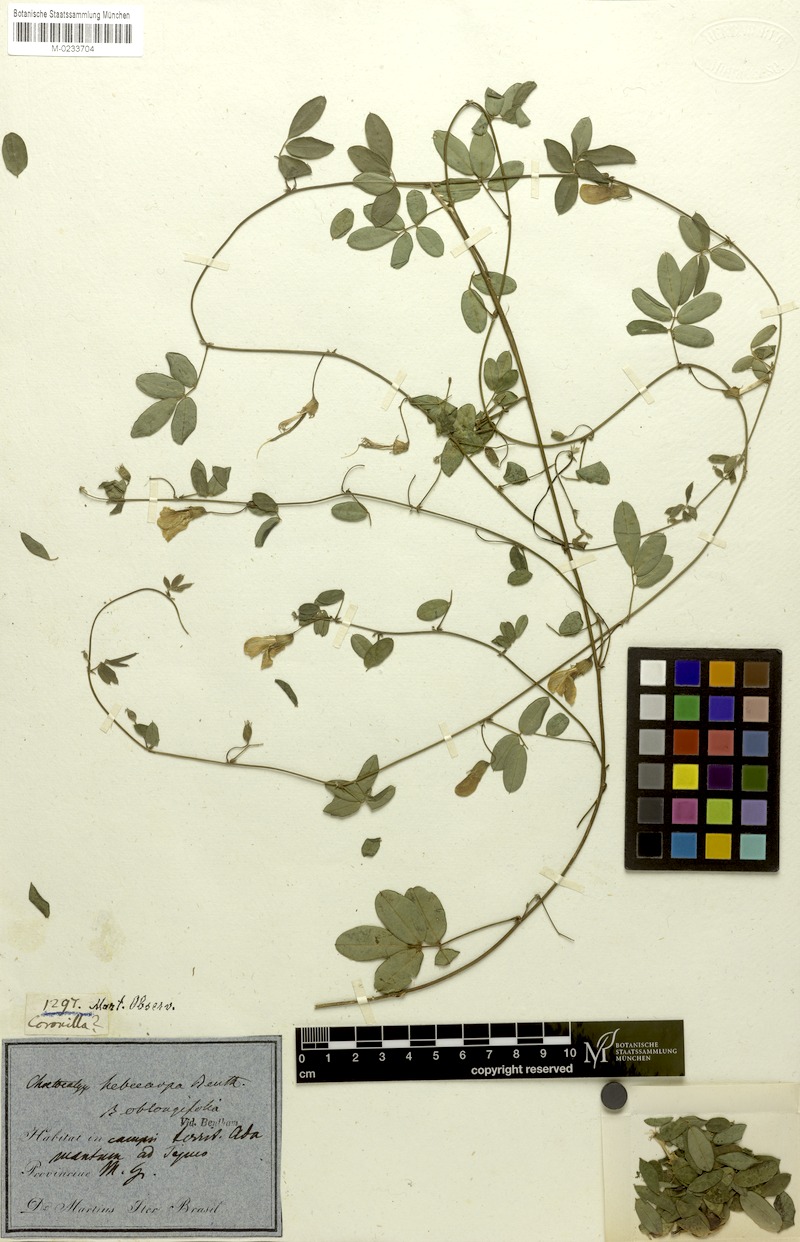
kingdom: Plantae
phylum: Tracheophyta
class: Magnoliopsida
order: Fabales
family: Fabaceae
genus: Nissolia
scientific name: Nissolia longiflora
